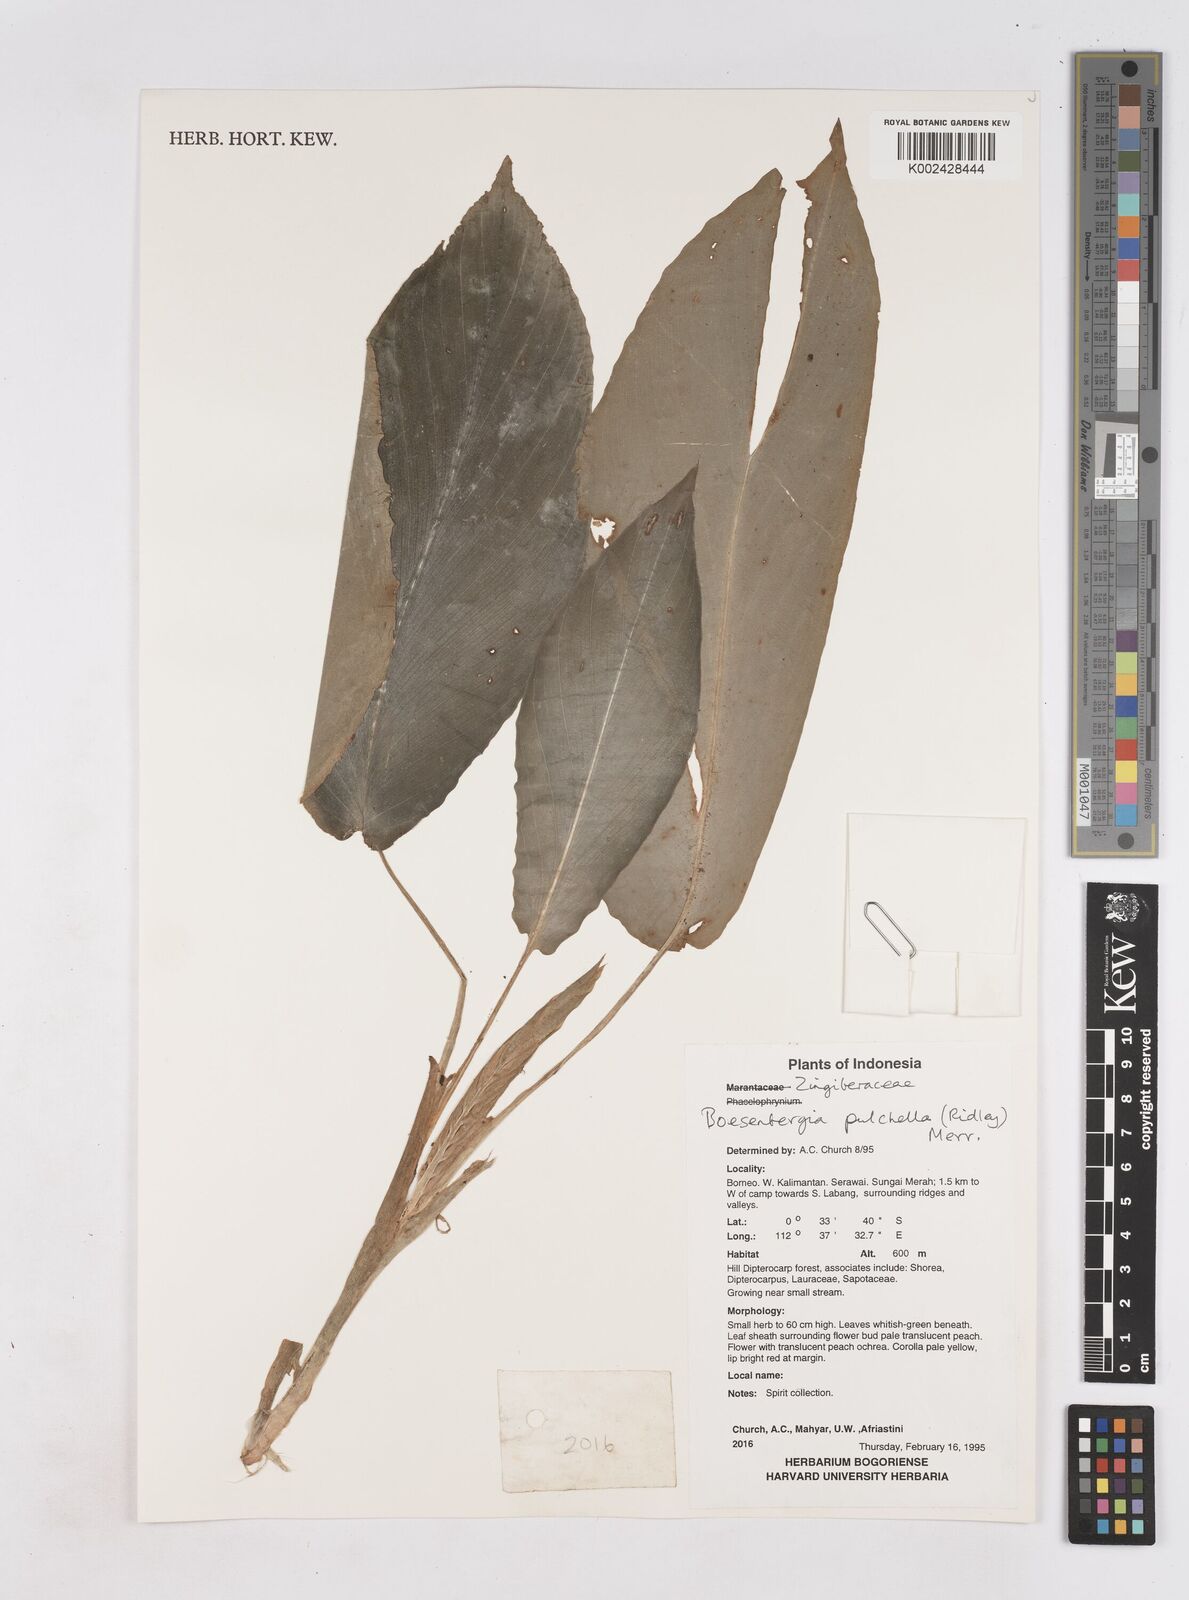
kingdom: Plantae
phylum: Tracheophyta
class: Liliopsida
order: Zingiberales
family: Zingiberaceae
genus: Boesenbergia
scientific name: Boesenbergia pulchella
